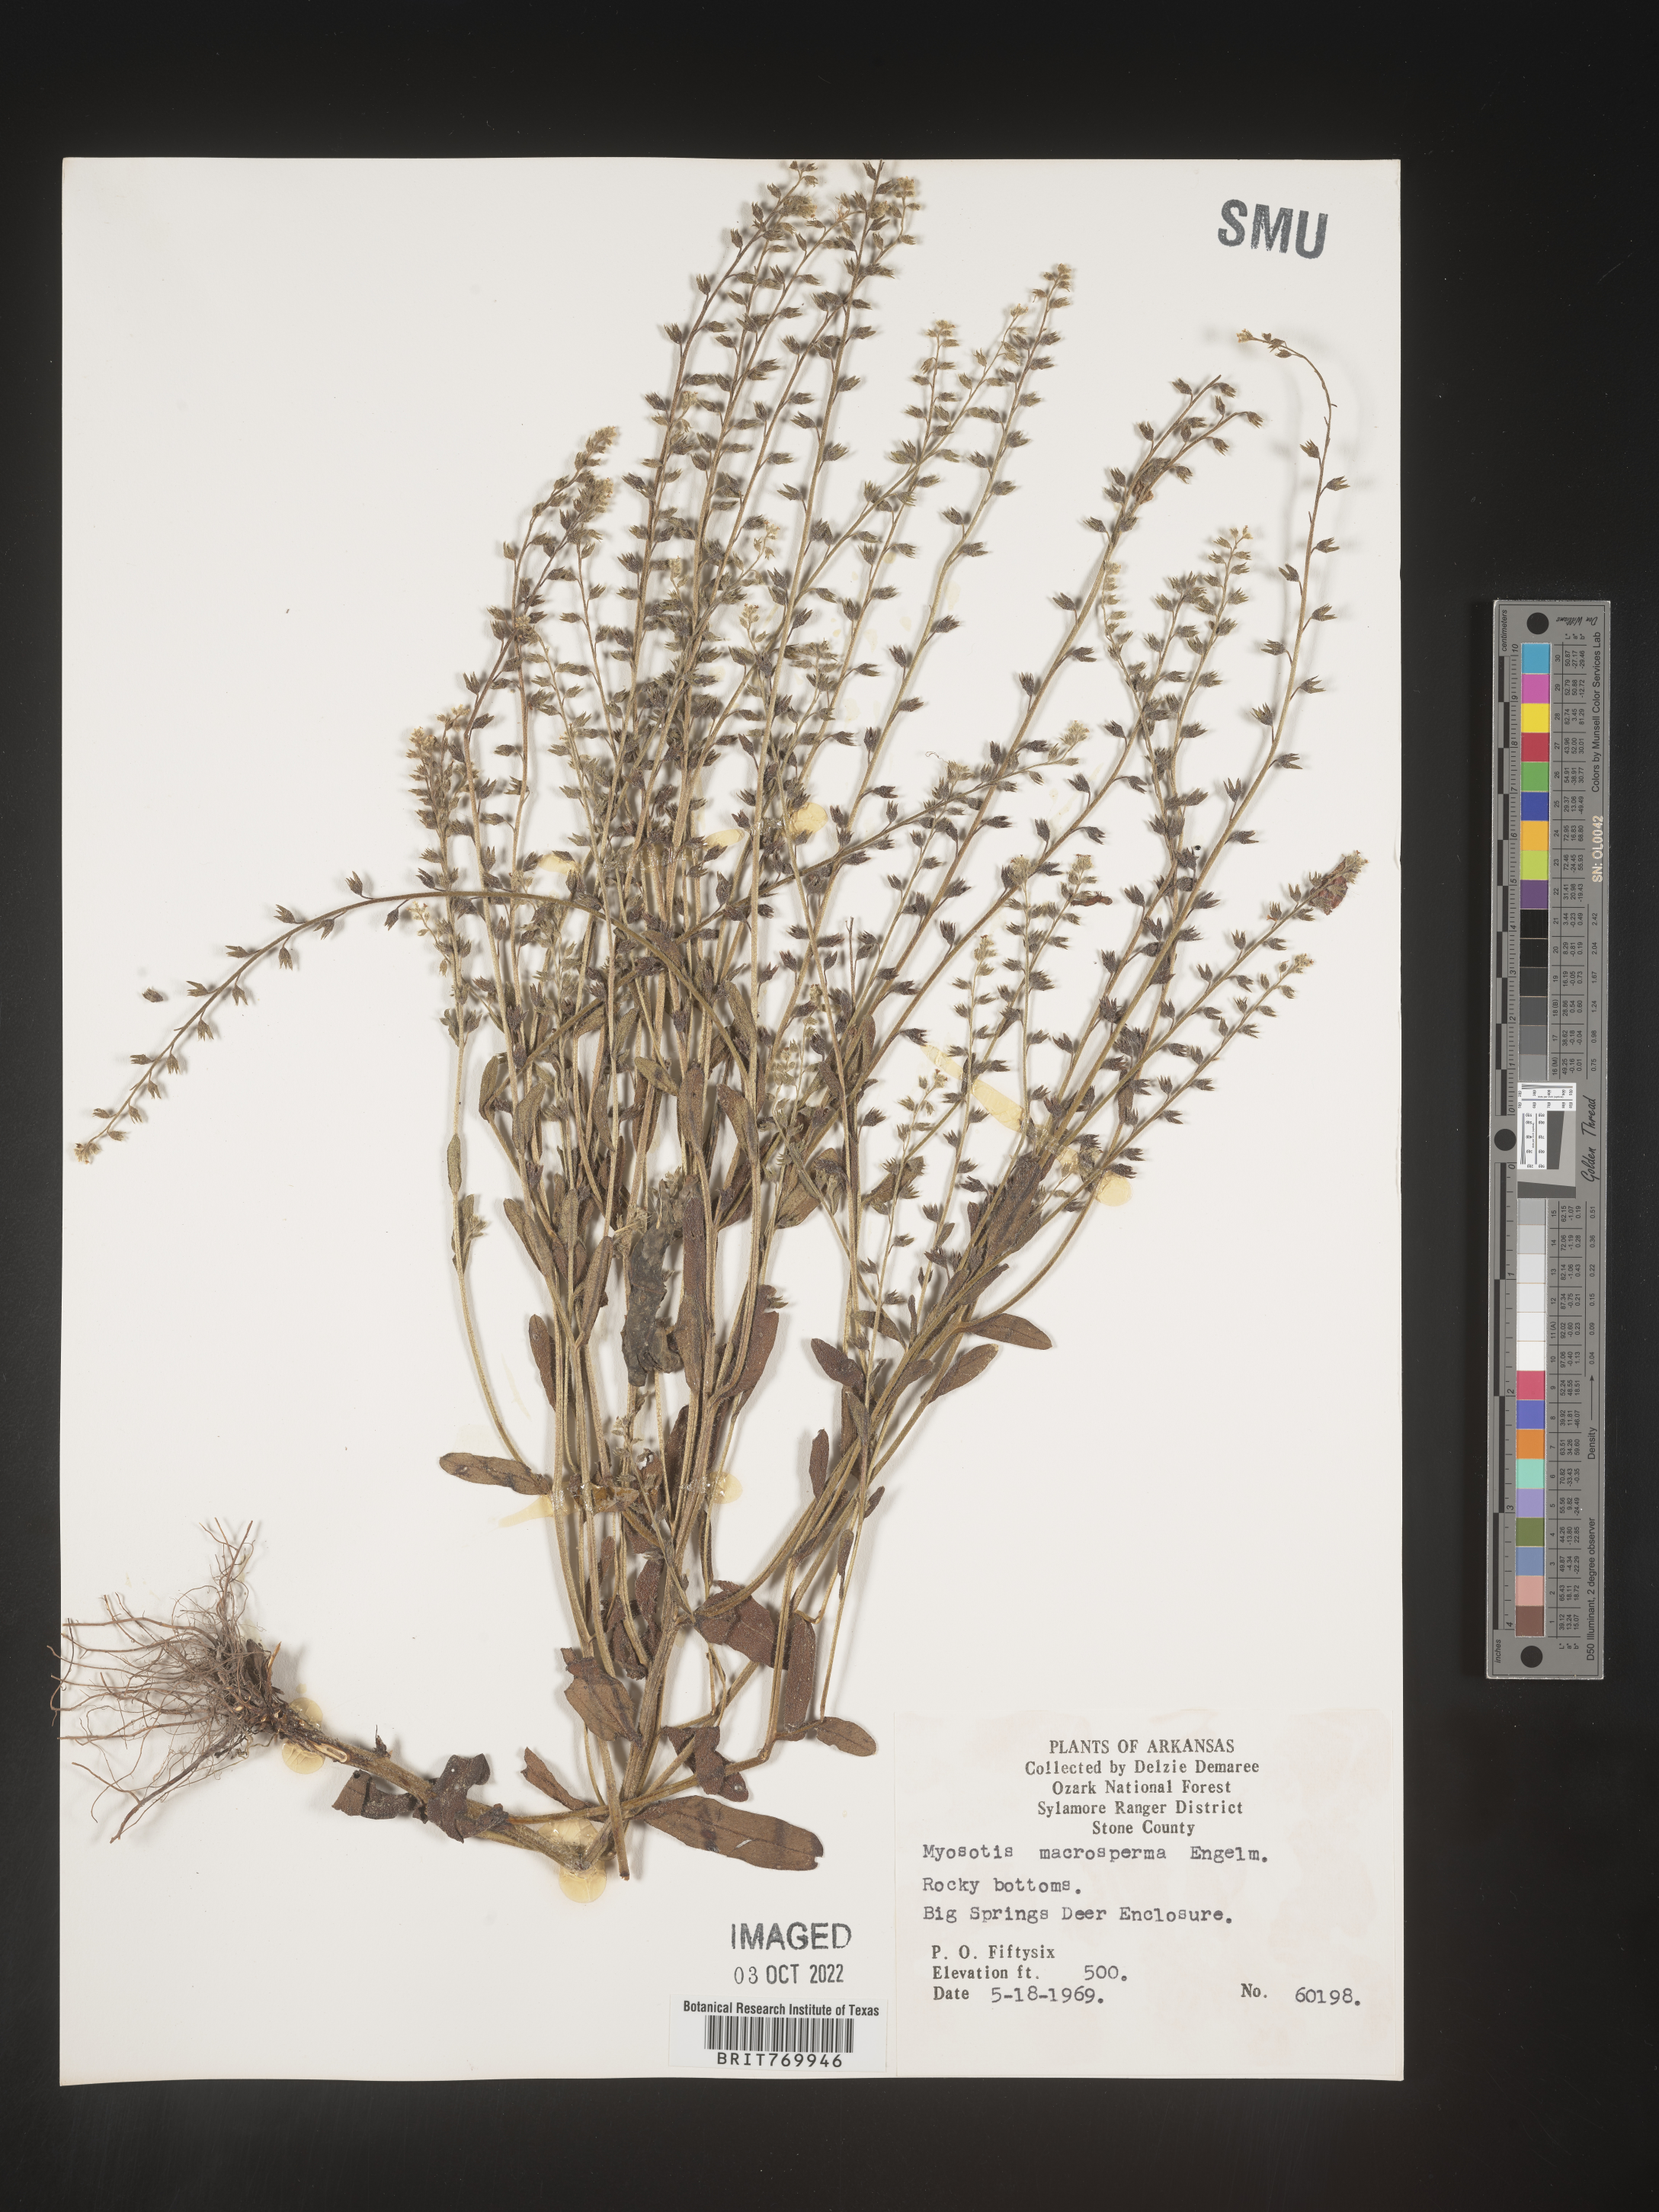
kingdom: Plantae
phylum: Tracheophyta
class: Magnoliopsida
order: Boraginales
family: Boraginaceae
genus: Myosotis
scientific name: Myosotis verna
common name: Early forget-me-not
